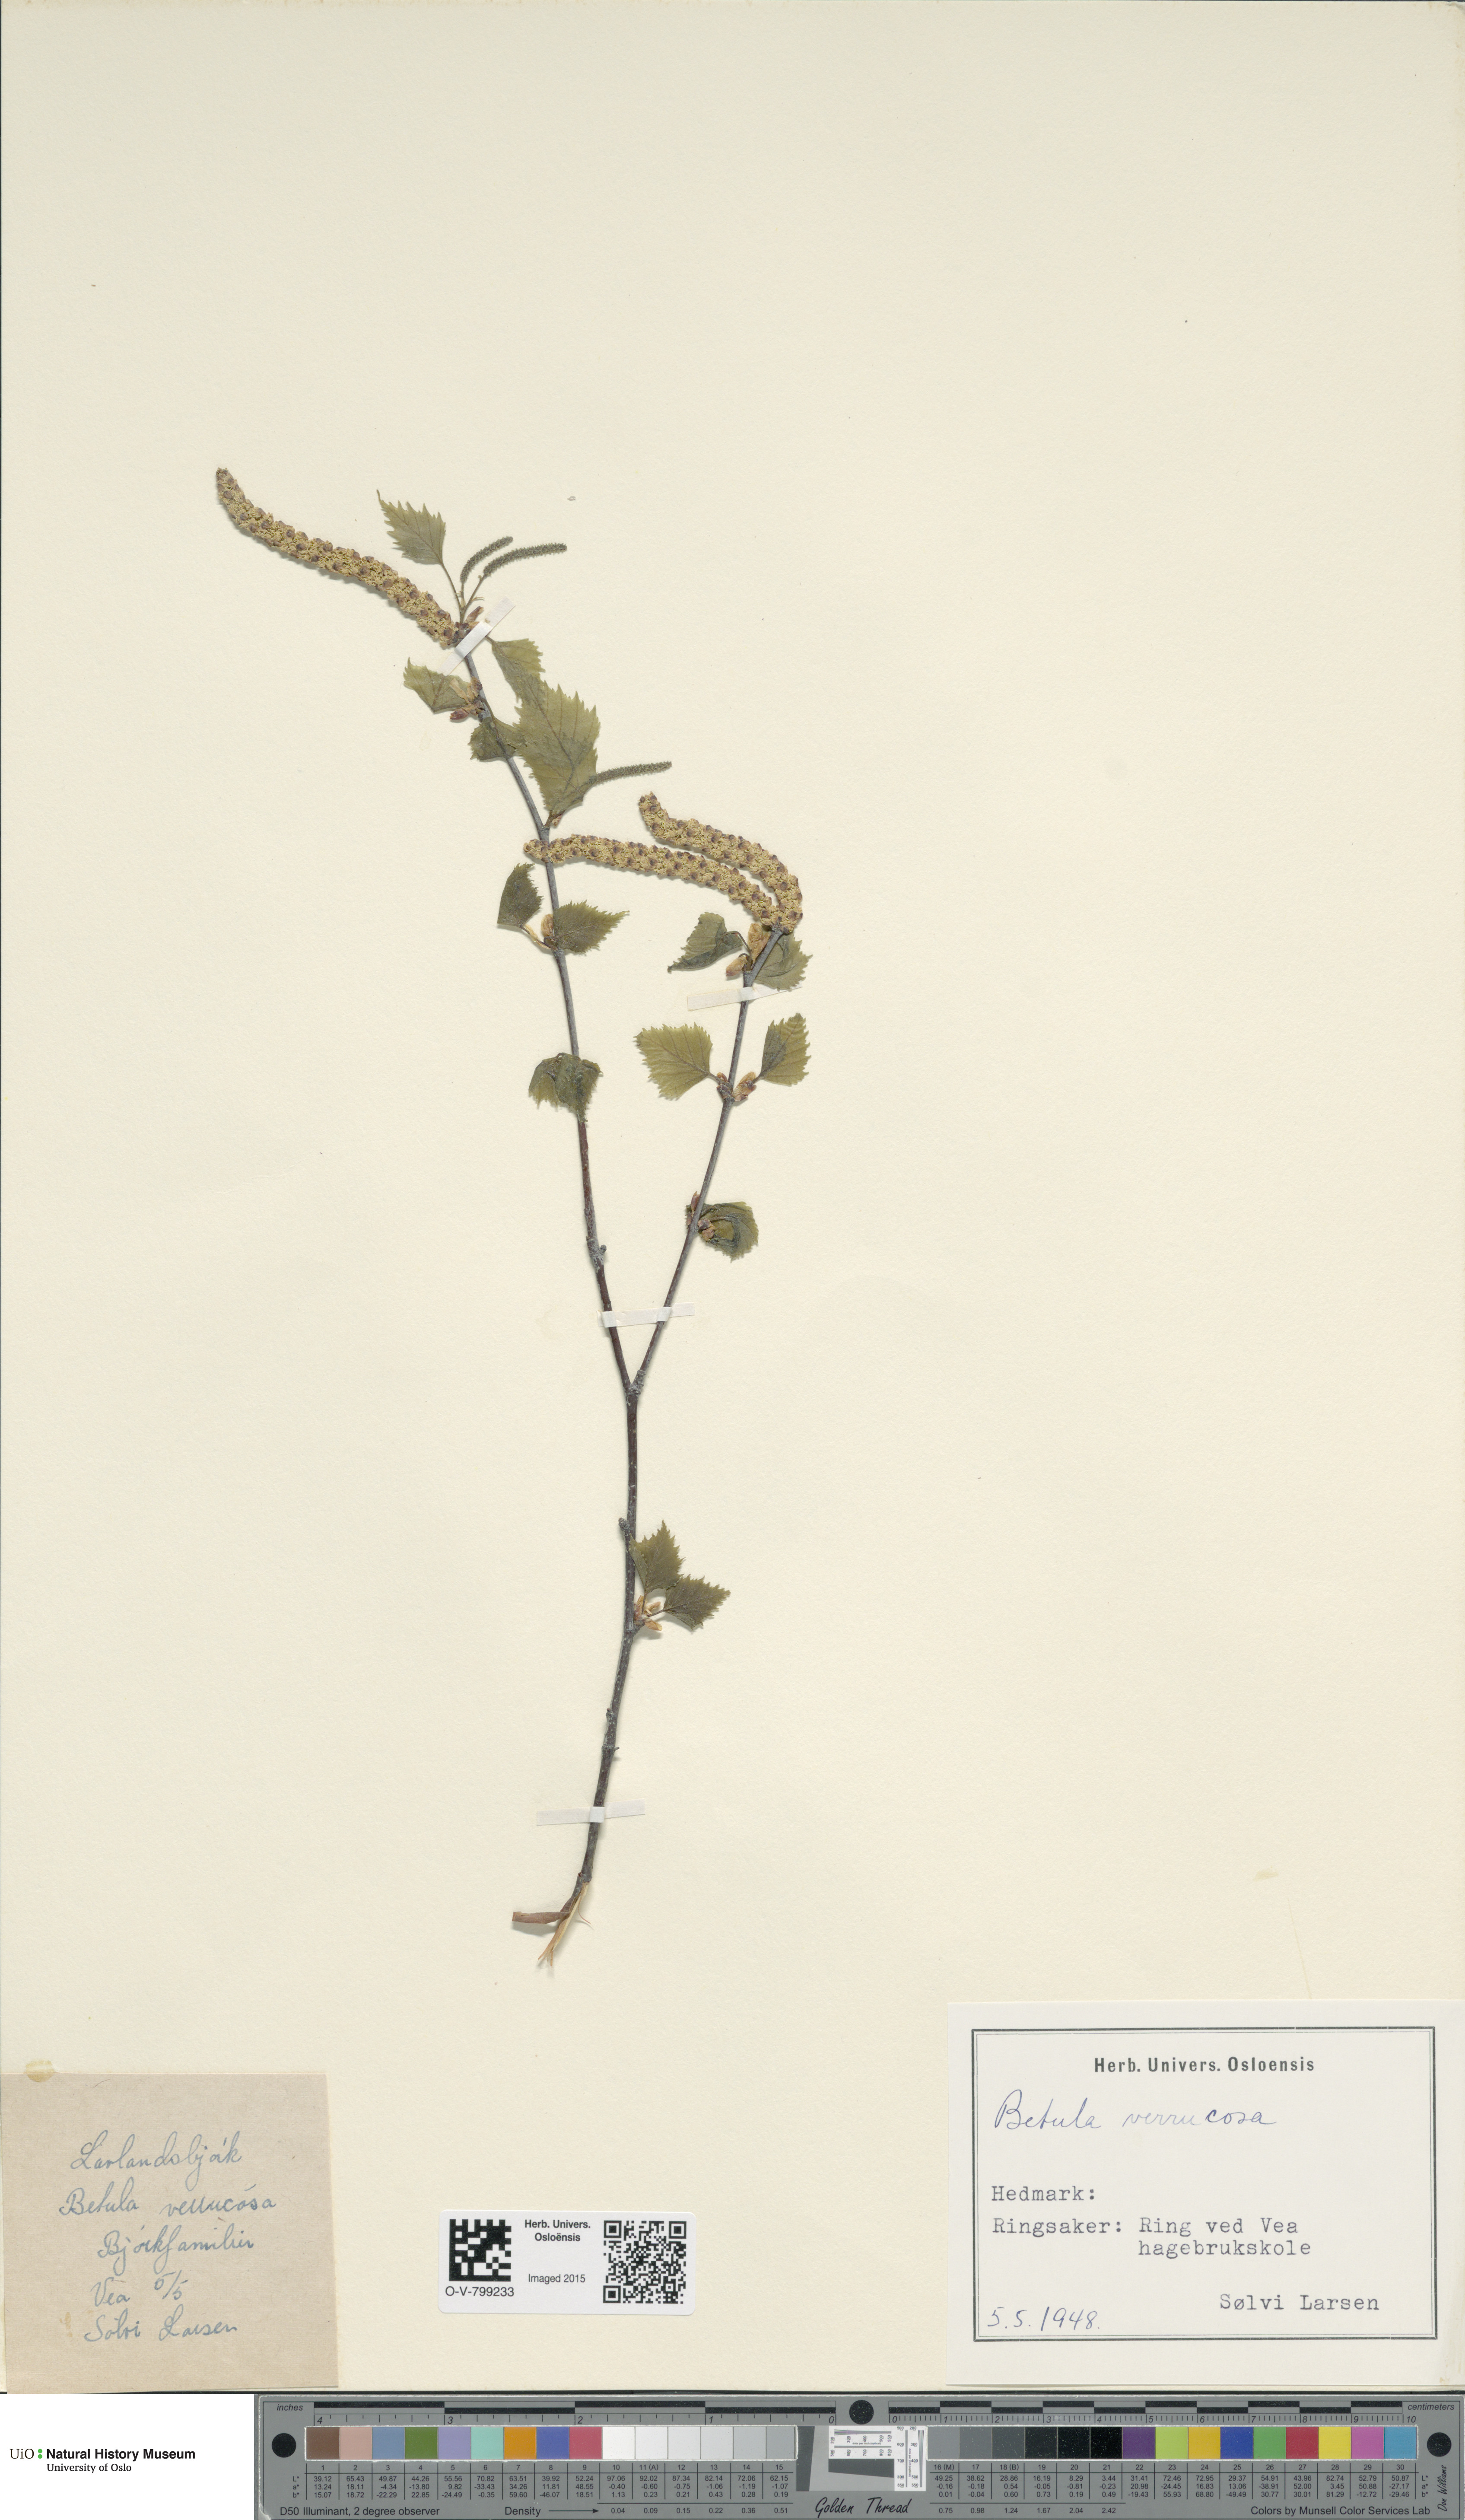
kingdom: Plantae
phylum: Tracheophyta
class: Magnoliopsida
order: Fagales
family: Betulaceae
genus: Betula
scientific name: Betula pendula
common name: Silver birch
